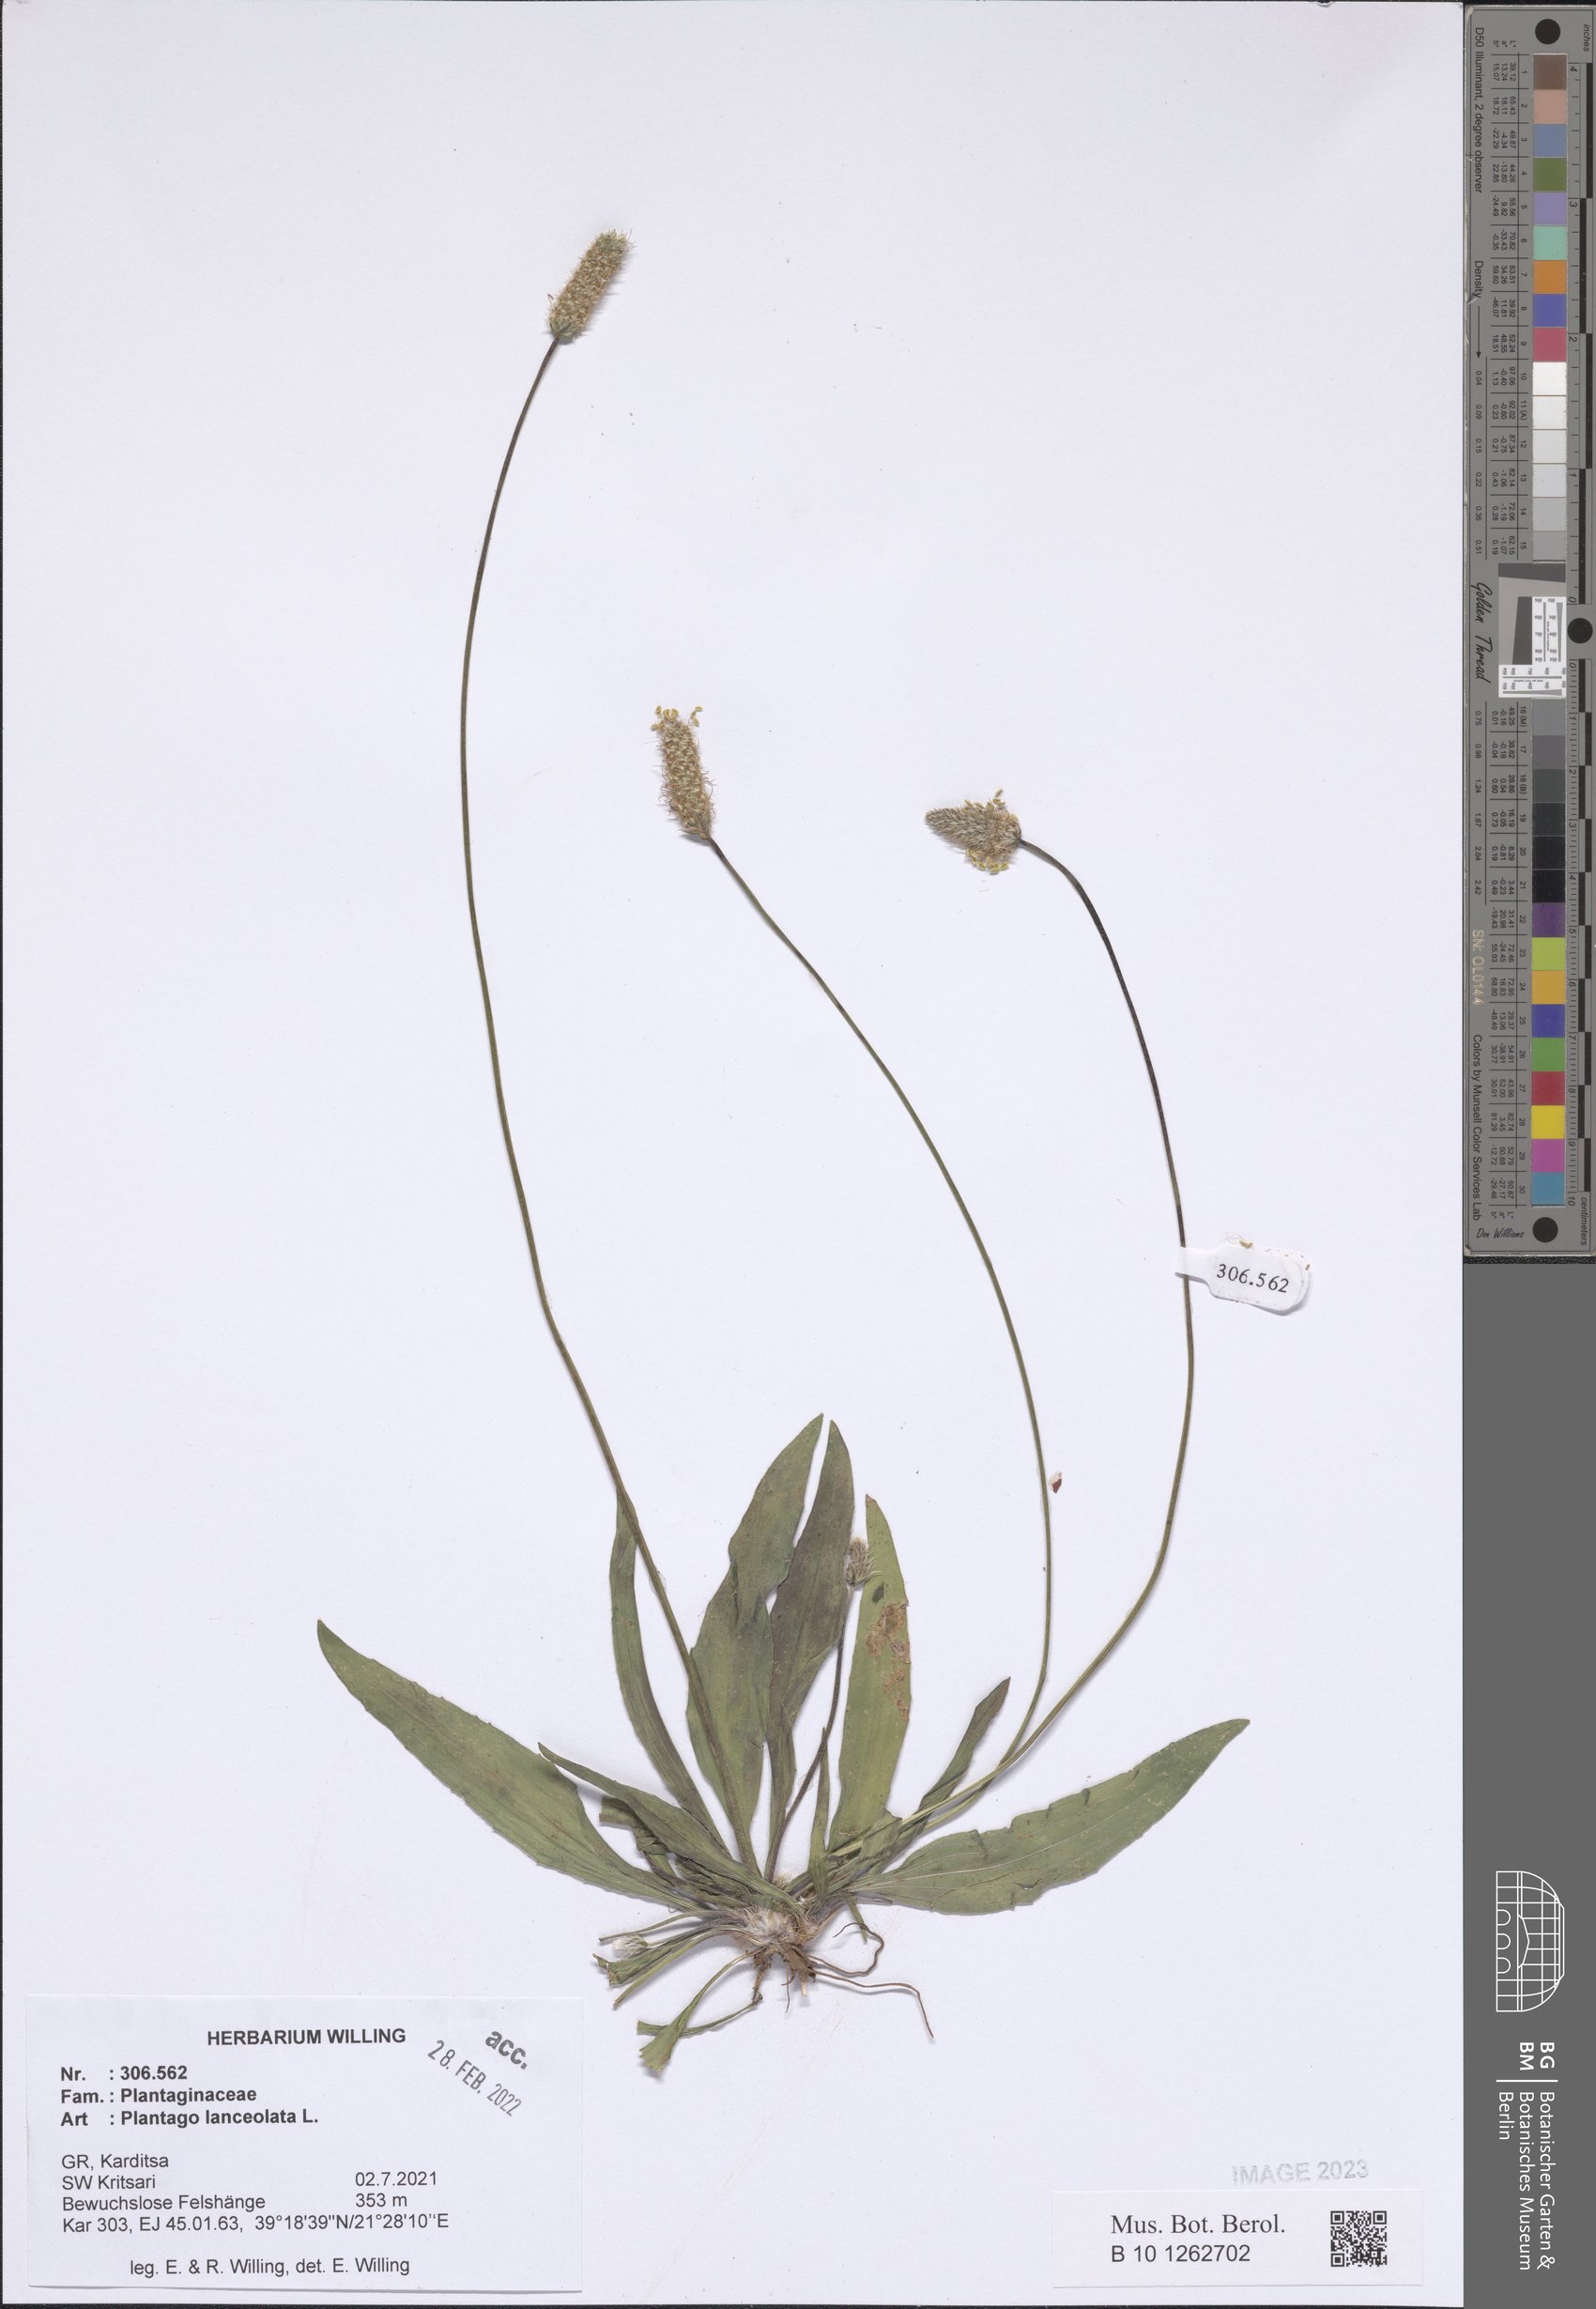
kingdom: Plantae
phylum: Tracheophyta
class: Magnoliopsida
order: Lamiales
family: Plantaginaceae
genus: Plantago
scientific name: Plantago lanceolata
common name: Ribwort plantain
